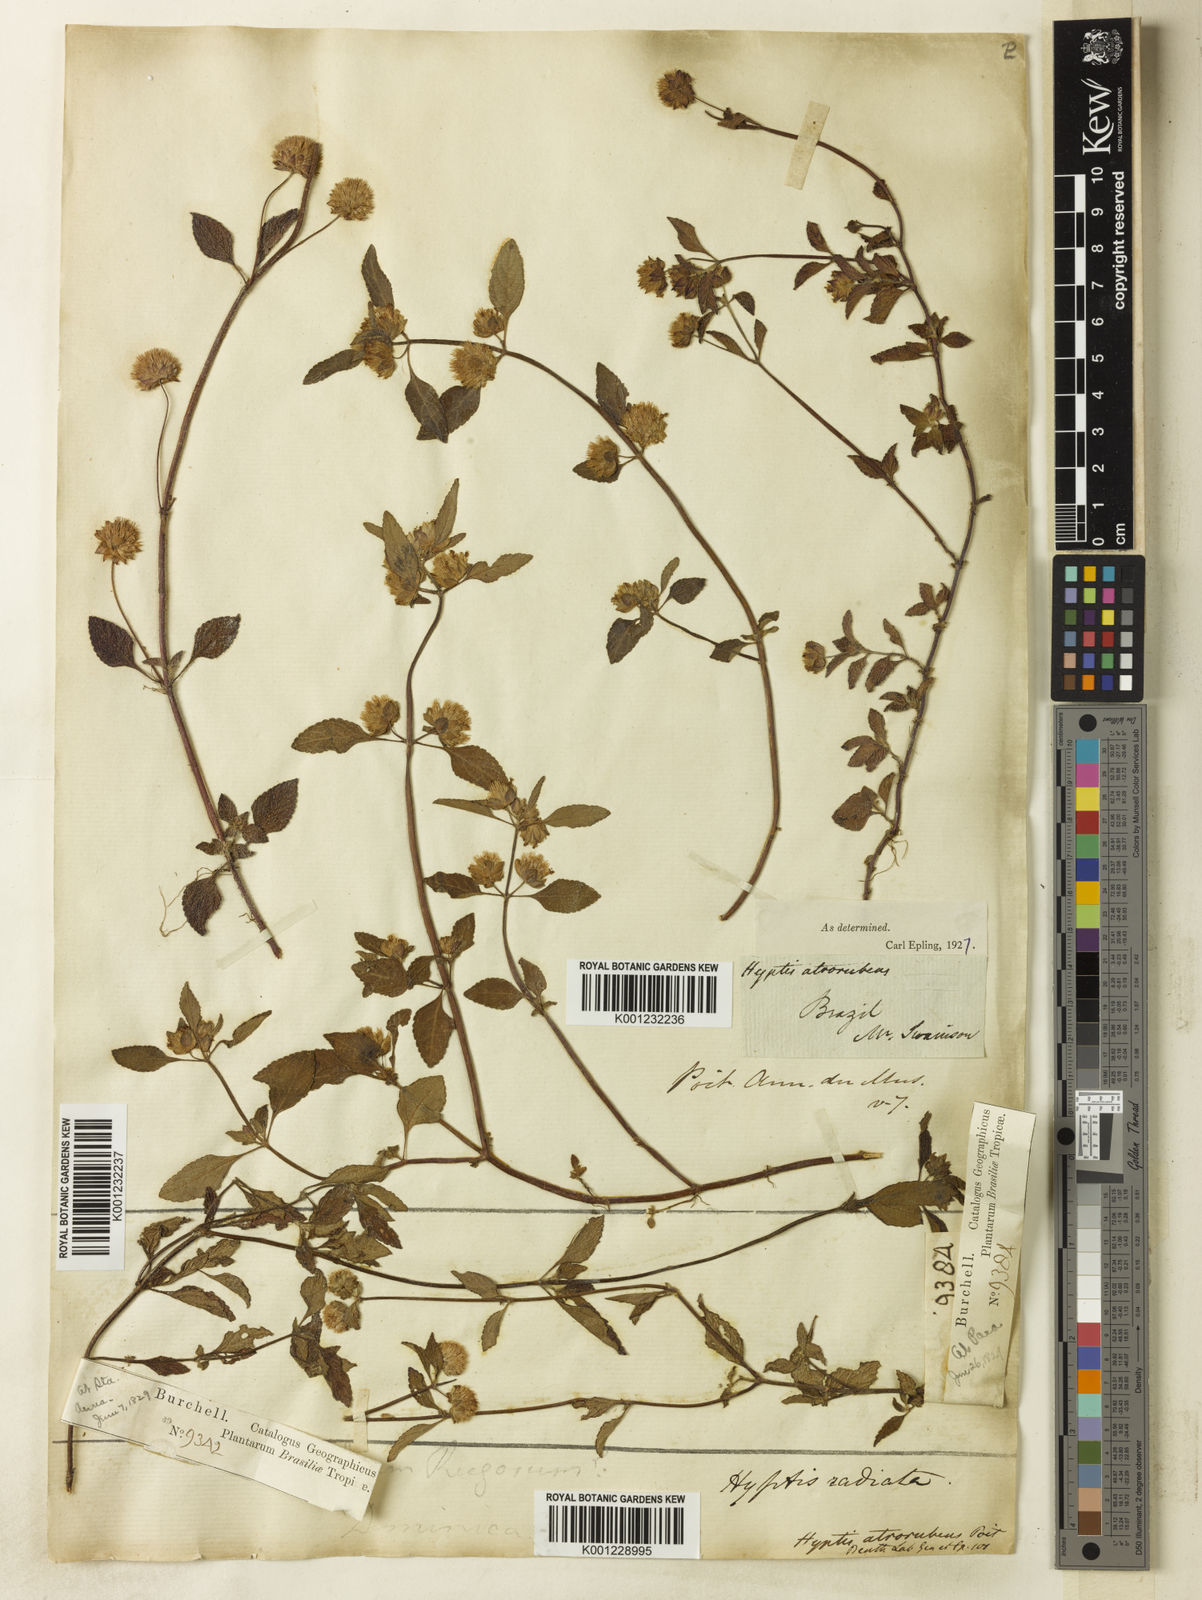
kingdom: Plantae
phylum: Tracheophyta
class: Magnoliopsida
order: Lamiales
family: Lamiaceae
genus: Hyptis
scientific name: Hyptis atrorubens
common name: Lanmant
